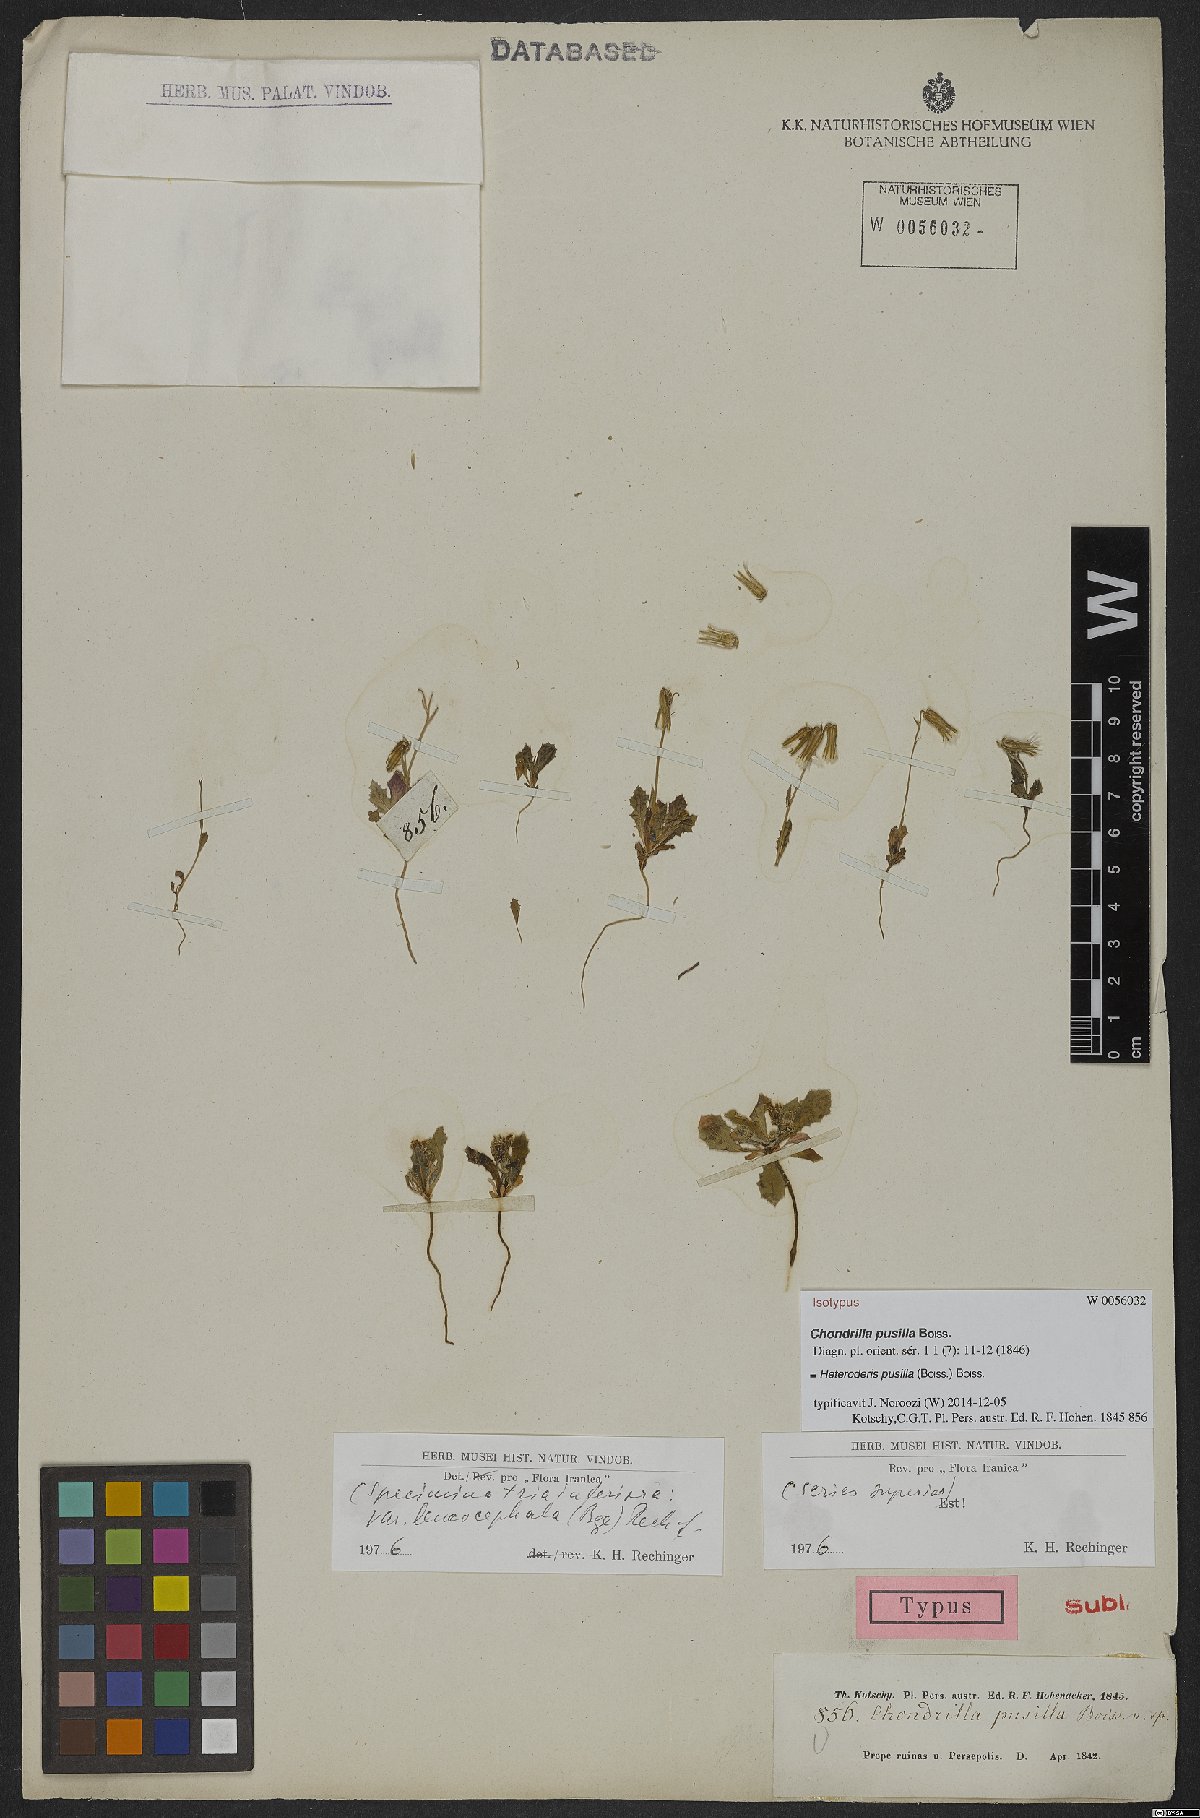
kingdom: Plantae
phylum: Tracheophyta
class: Magnoliopsida
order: Asterales
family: Asteraceae
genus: Heteroderis
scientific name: Heteroderis pusilla
